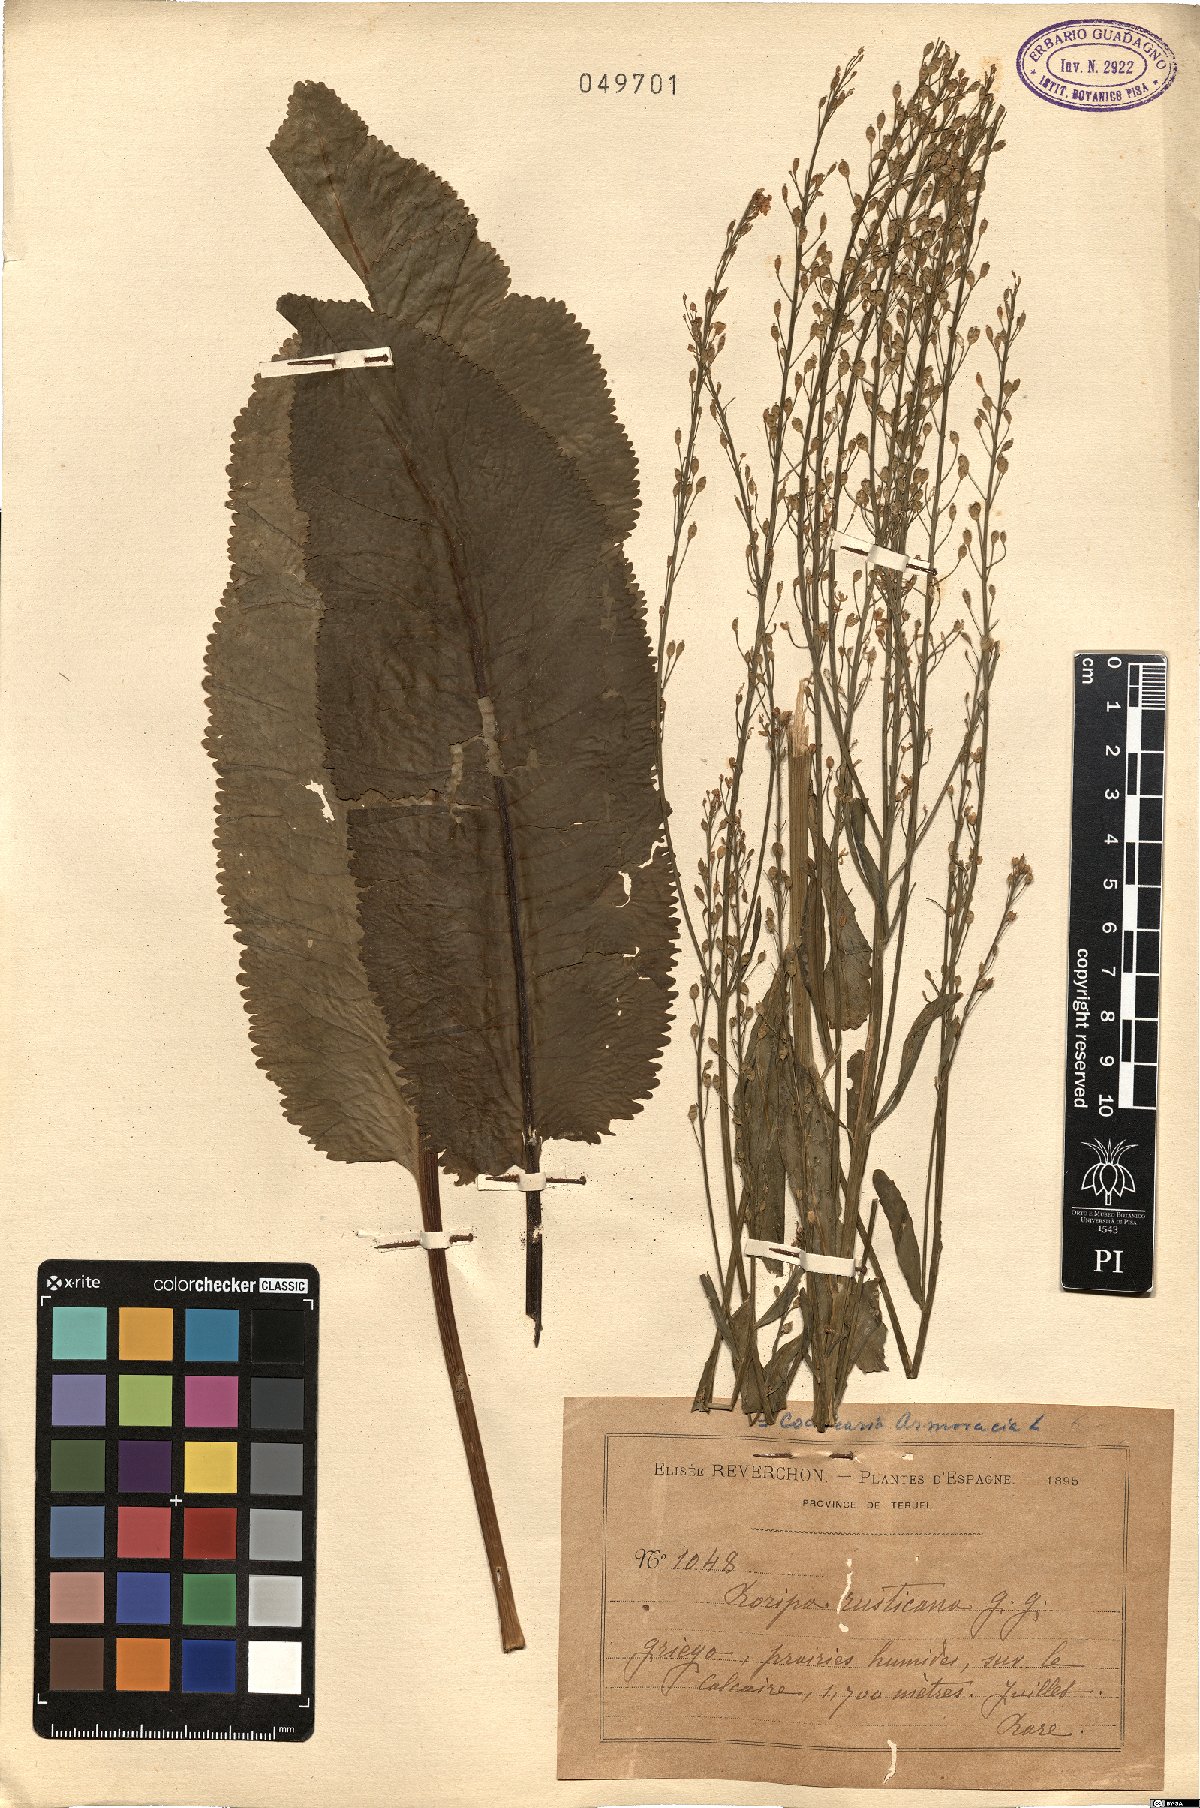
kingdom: Plantae
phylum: Tracheophyta
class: Magnoliopsida
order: Brassicales
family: Brassicaceae
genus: Armoracia
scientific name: Armoracia rusticana
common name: Horseradish
